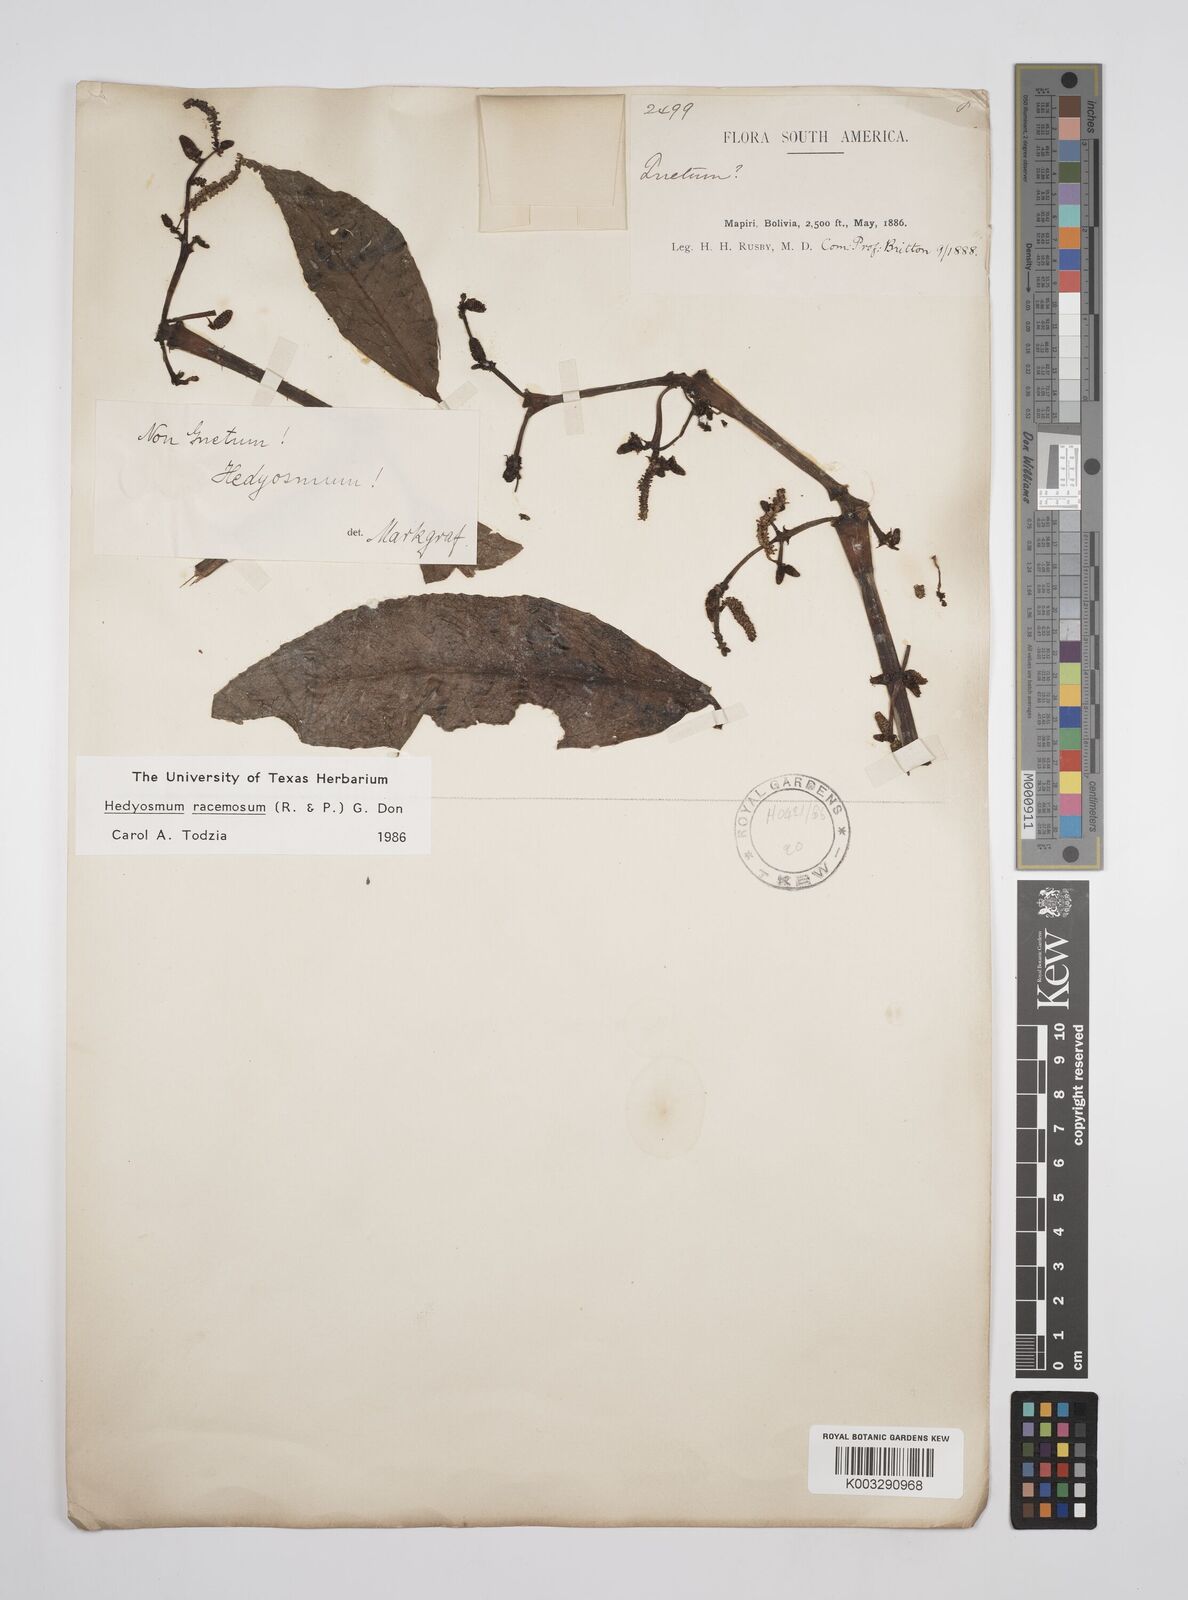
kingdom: Plantae
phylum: Tracheophyta
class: Magnoliopsida
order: Chloranthales
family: Chloranthaceae
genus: Hedyosmum
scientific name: Hedyosmum racemosum
